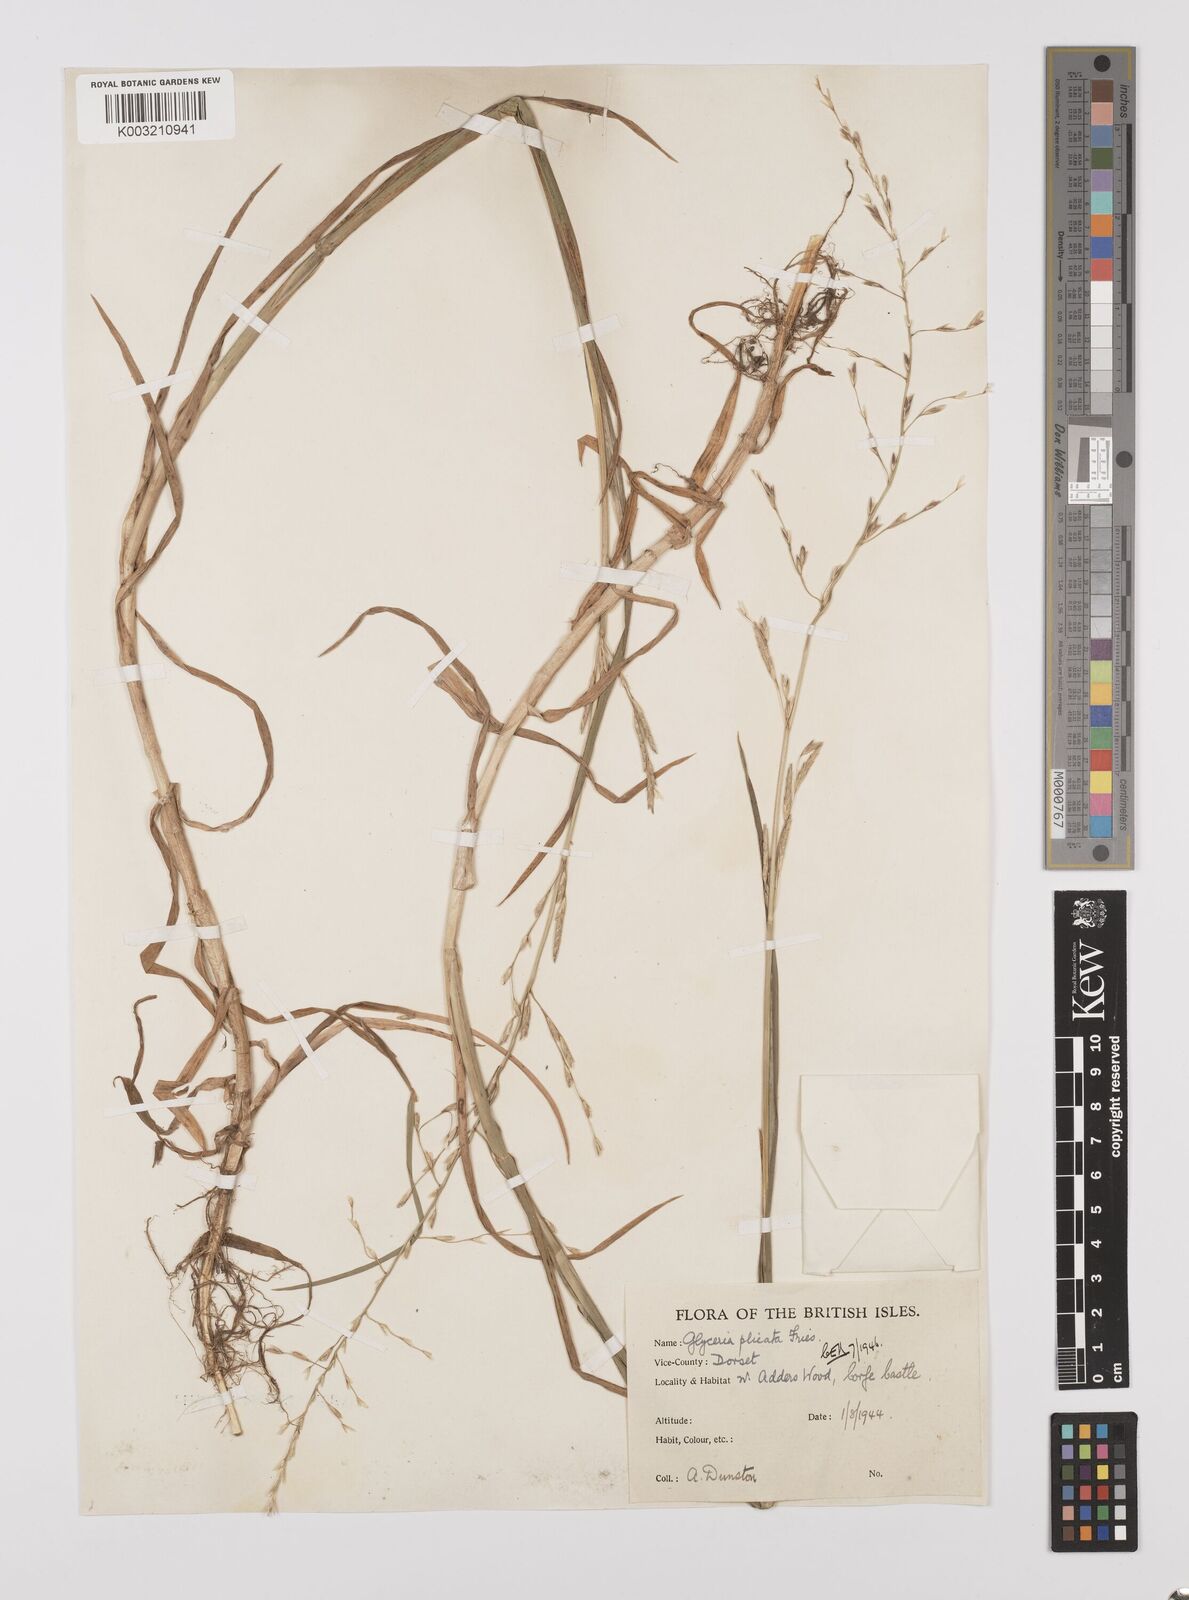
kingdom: Plantae
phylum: Tracheophyta
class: Liliopsida
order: Poales
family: Poaceae
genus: Glyceria
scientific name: Glyceria notata
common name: Plicate sweet-grass
